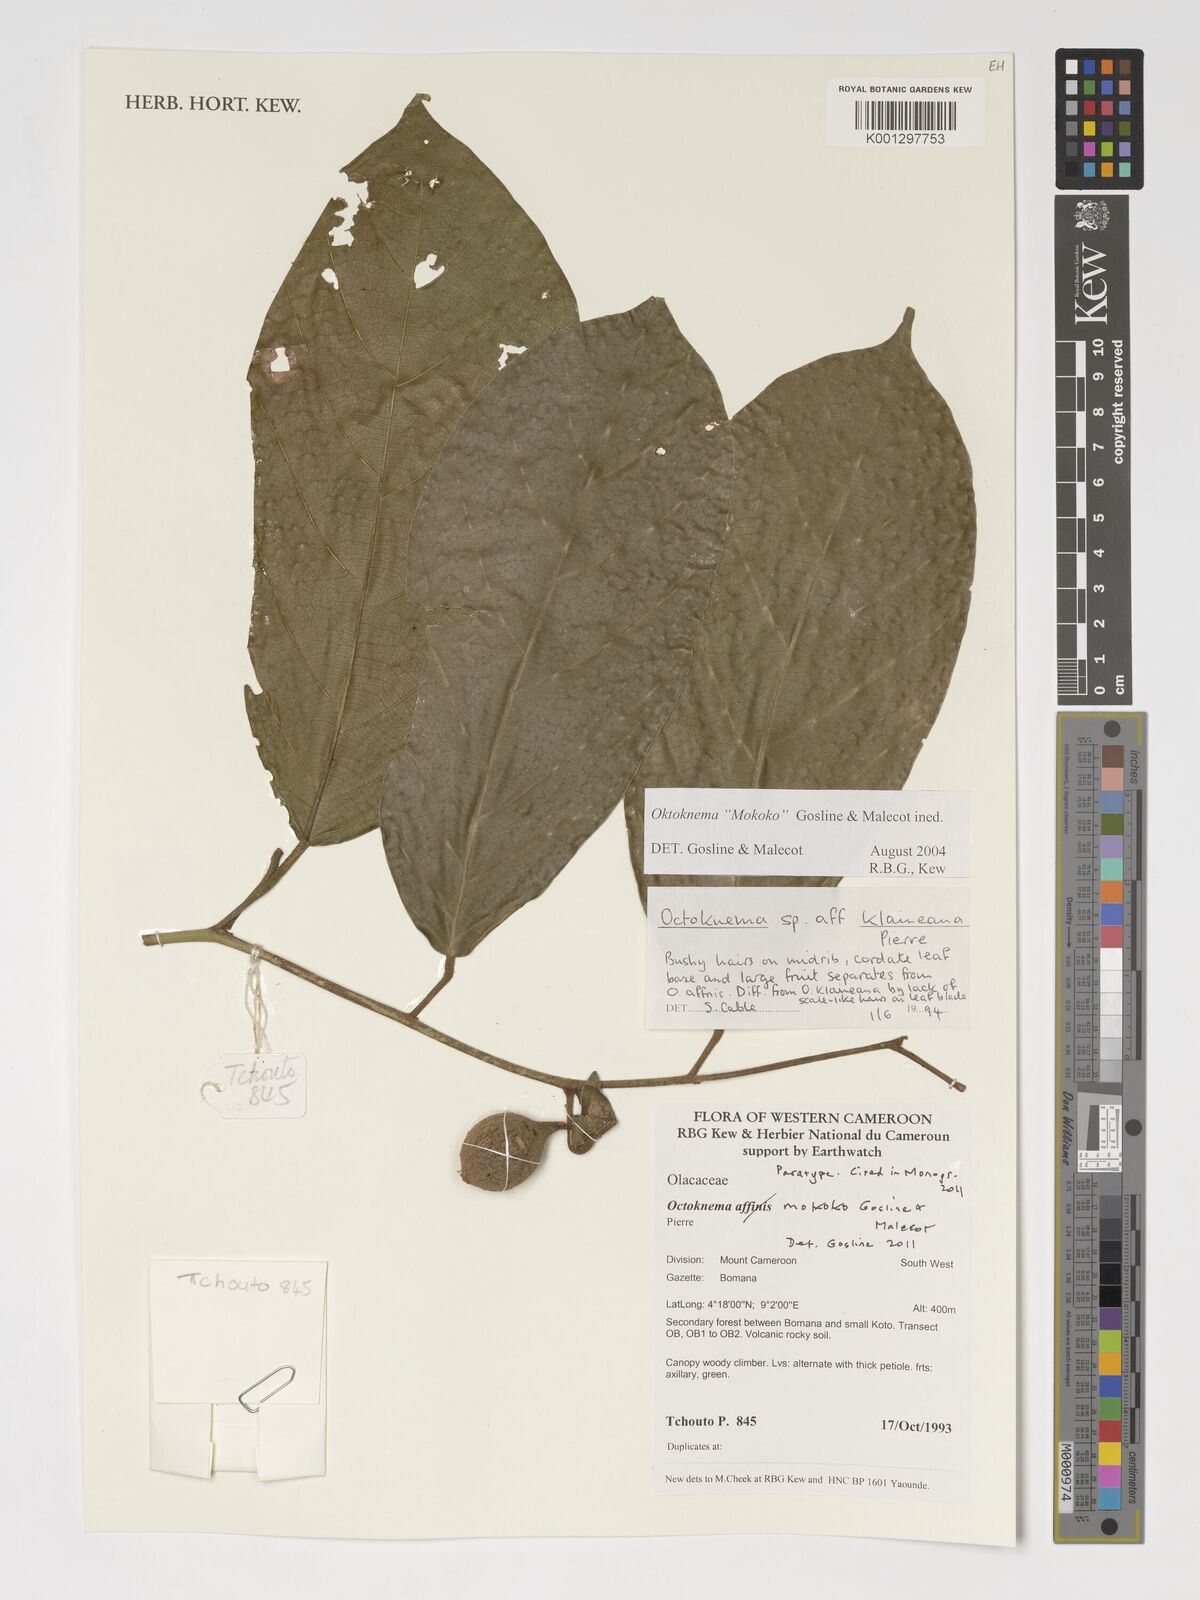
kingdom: Plantae
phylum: Tracheophyta
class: Magnoliopsida
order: Santalales
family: Octoknemaceae
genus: Octoknema
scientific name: Octoknema mokoko
